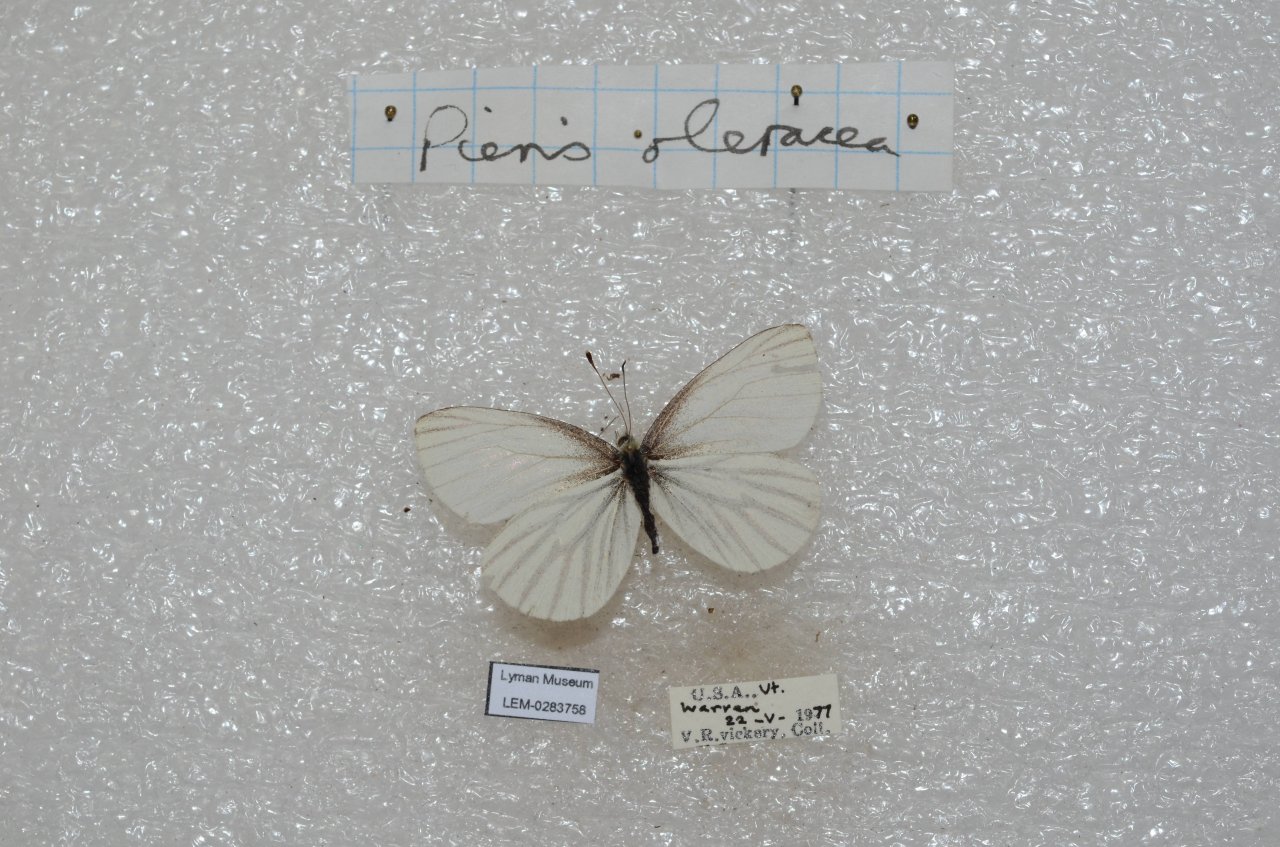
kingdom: Animalia
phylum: Arthropoda
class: Insecta
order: Lepidoptera
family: Pieridae
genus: Pieris
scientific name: Pieris oleracea
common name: Mustard White
